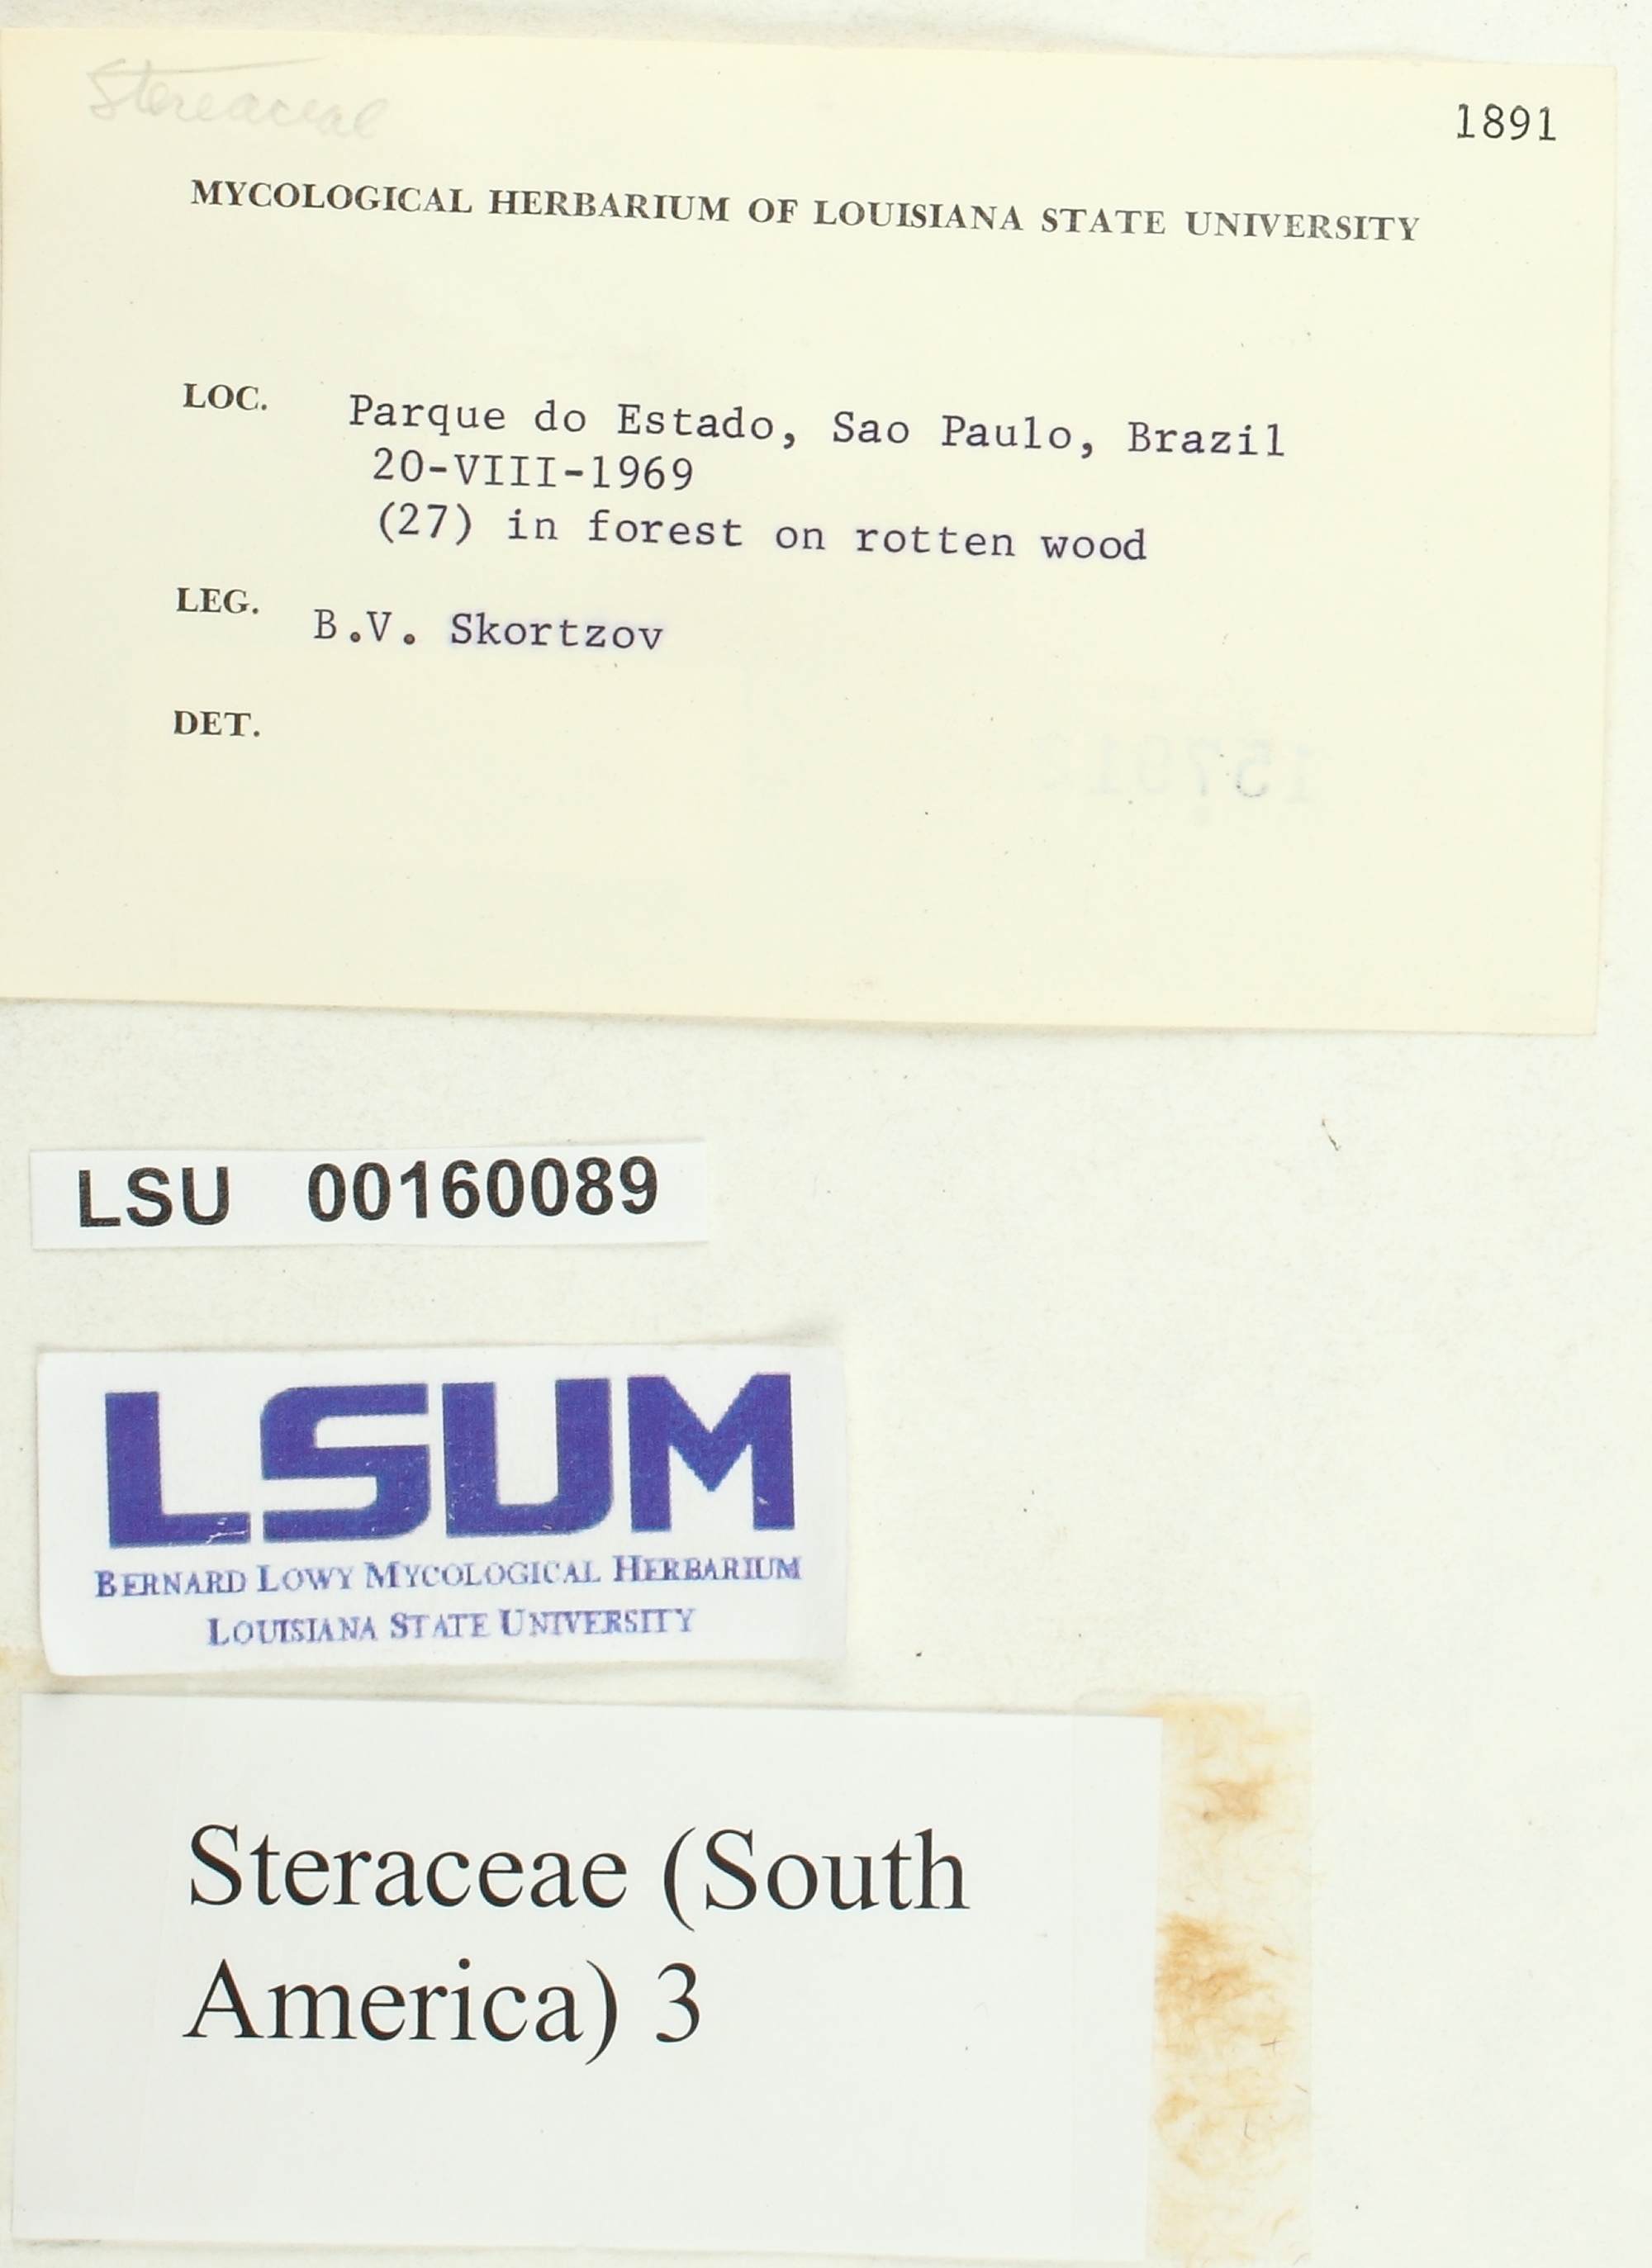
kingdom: Fungi
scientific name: Fungi
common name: Fungi
